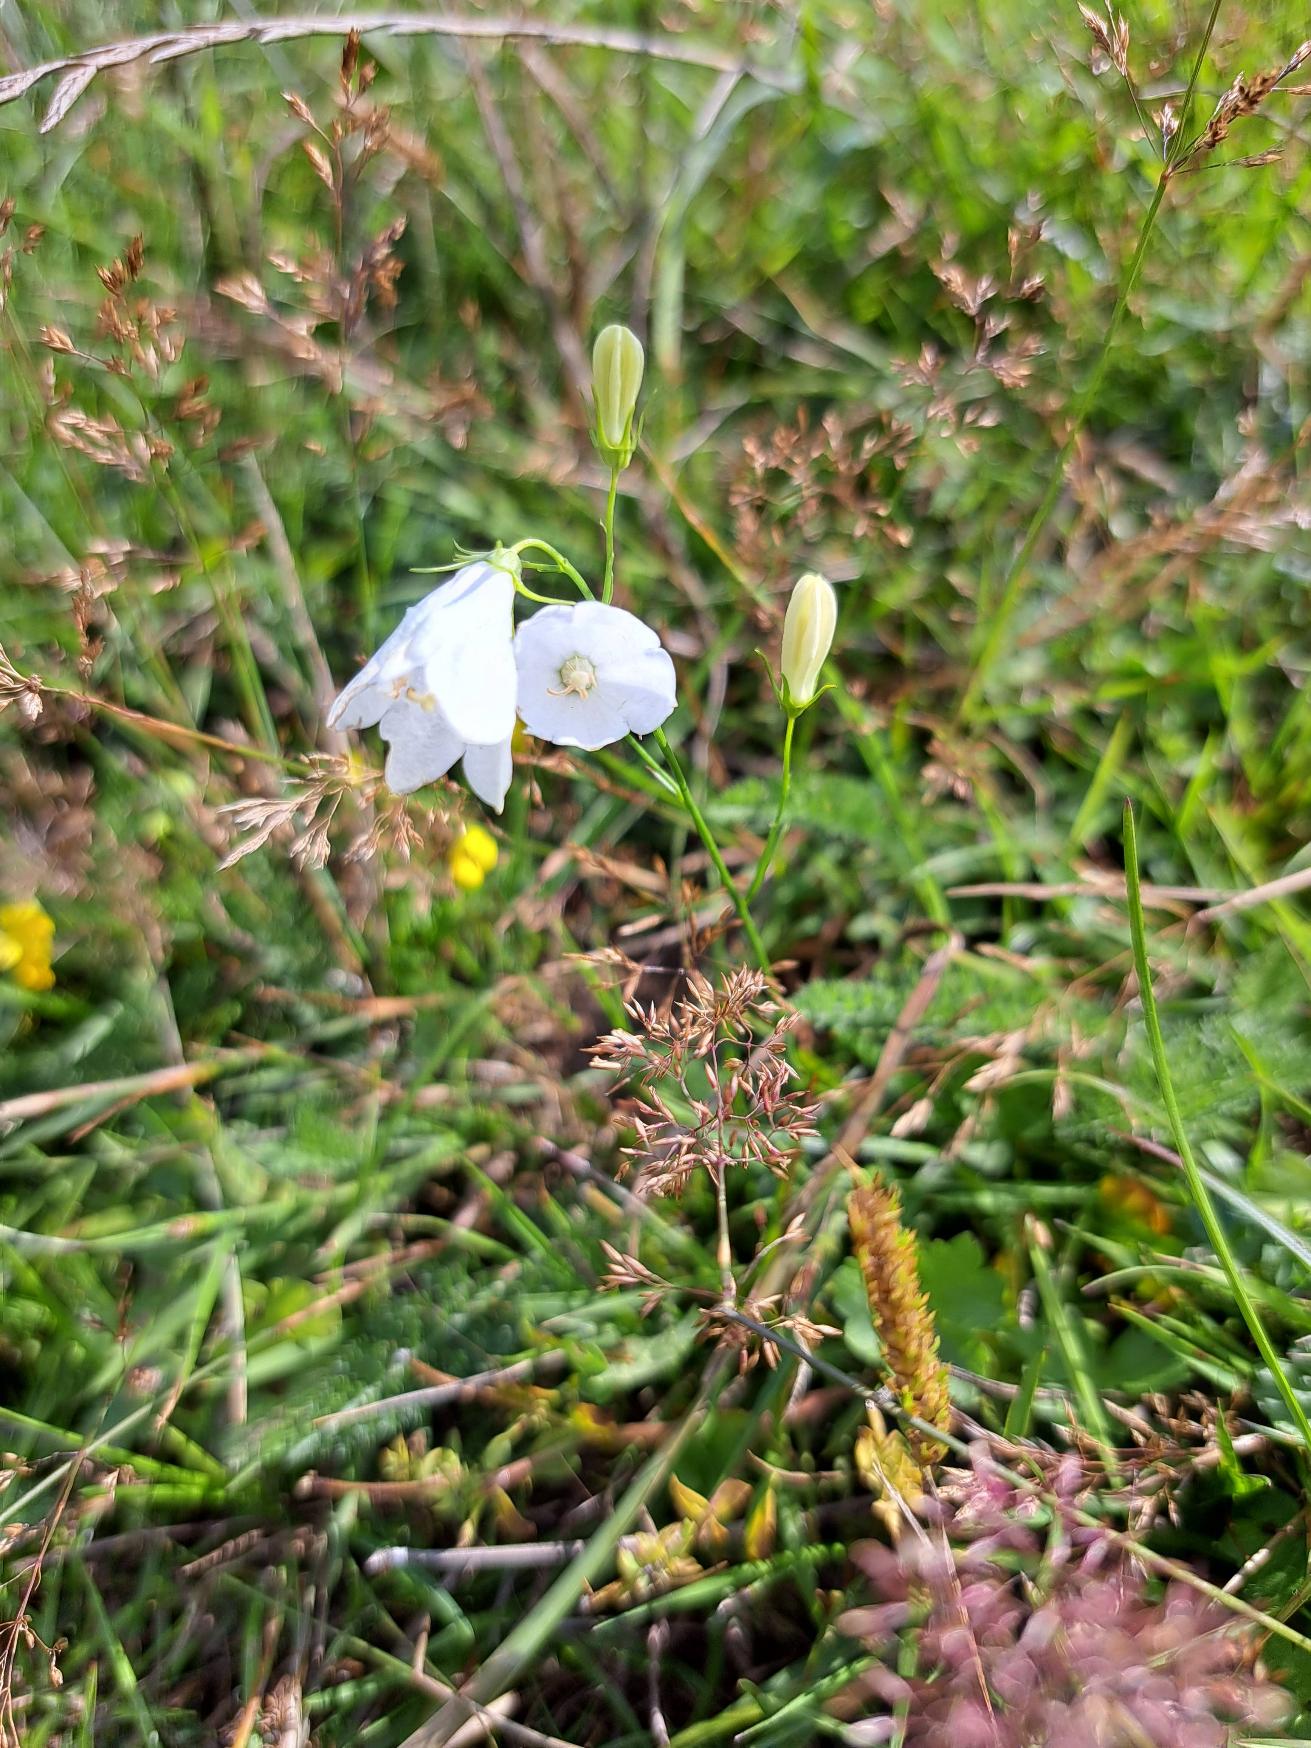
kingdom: Plantae
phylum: Tracheophyta
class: Magnoliopsida
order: Asterales
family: Campanulaceae
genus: Campanula
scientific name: Campanula rotundifolia
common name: Liden klokke
